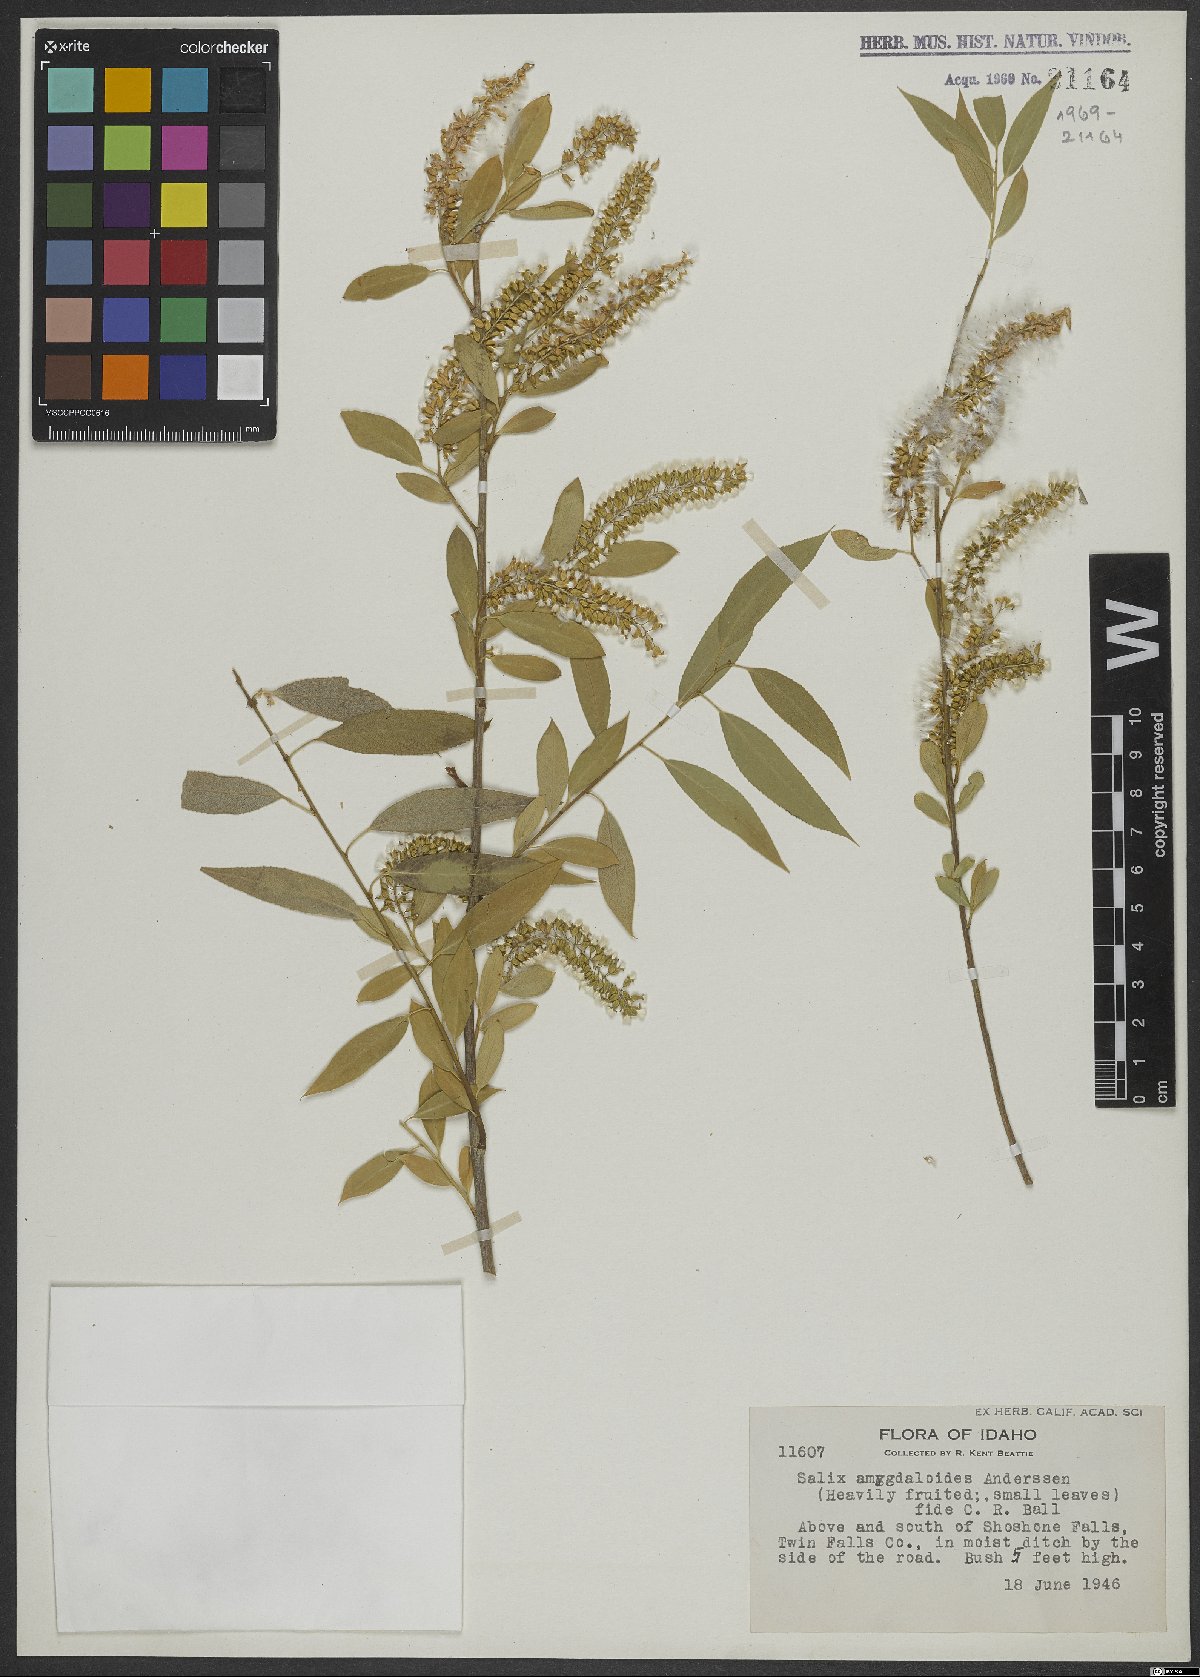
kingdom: Plantae
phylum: Tracheophyta
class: Magnoliopsida
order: Malpighiales
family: Salicaceae
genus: Salix
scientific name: Salix amygdaloides
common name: Peach leaf willow
